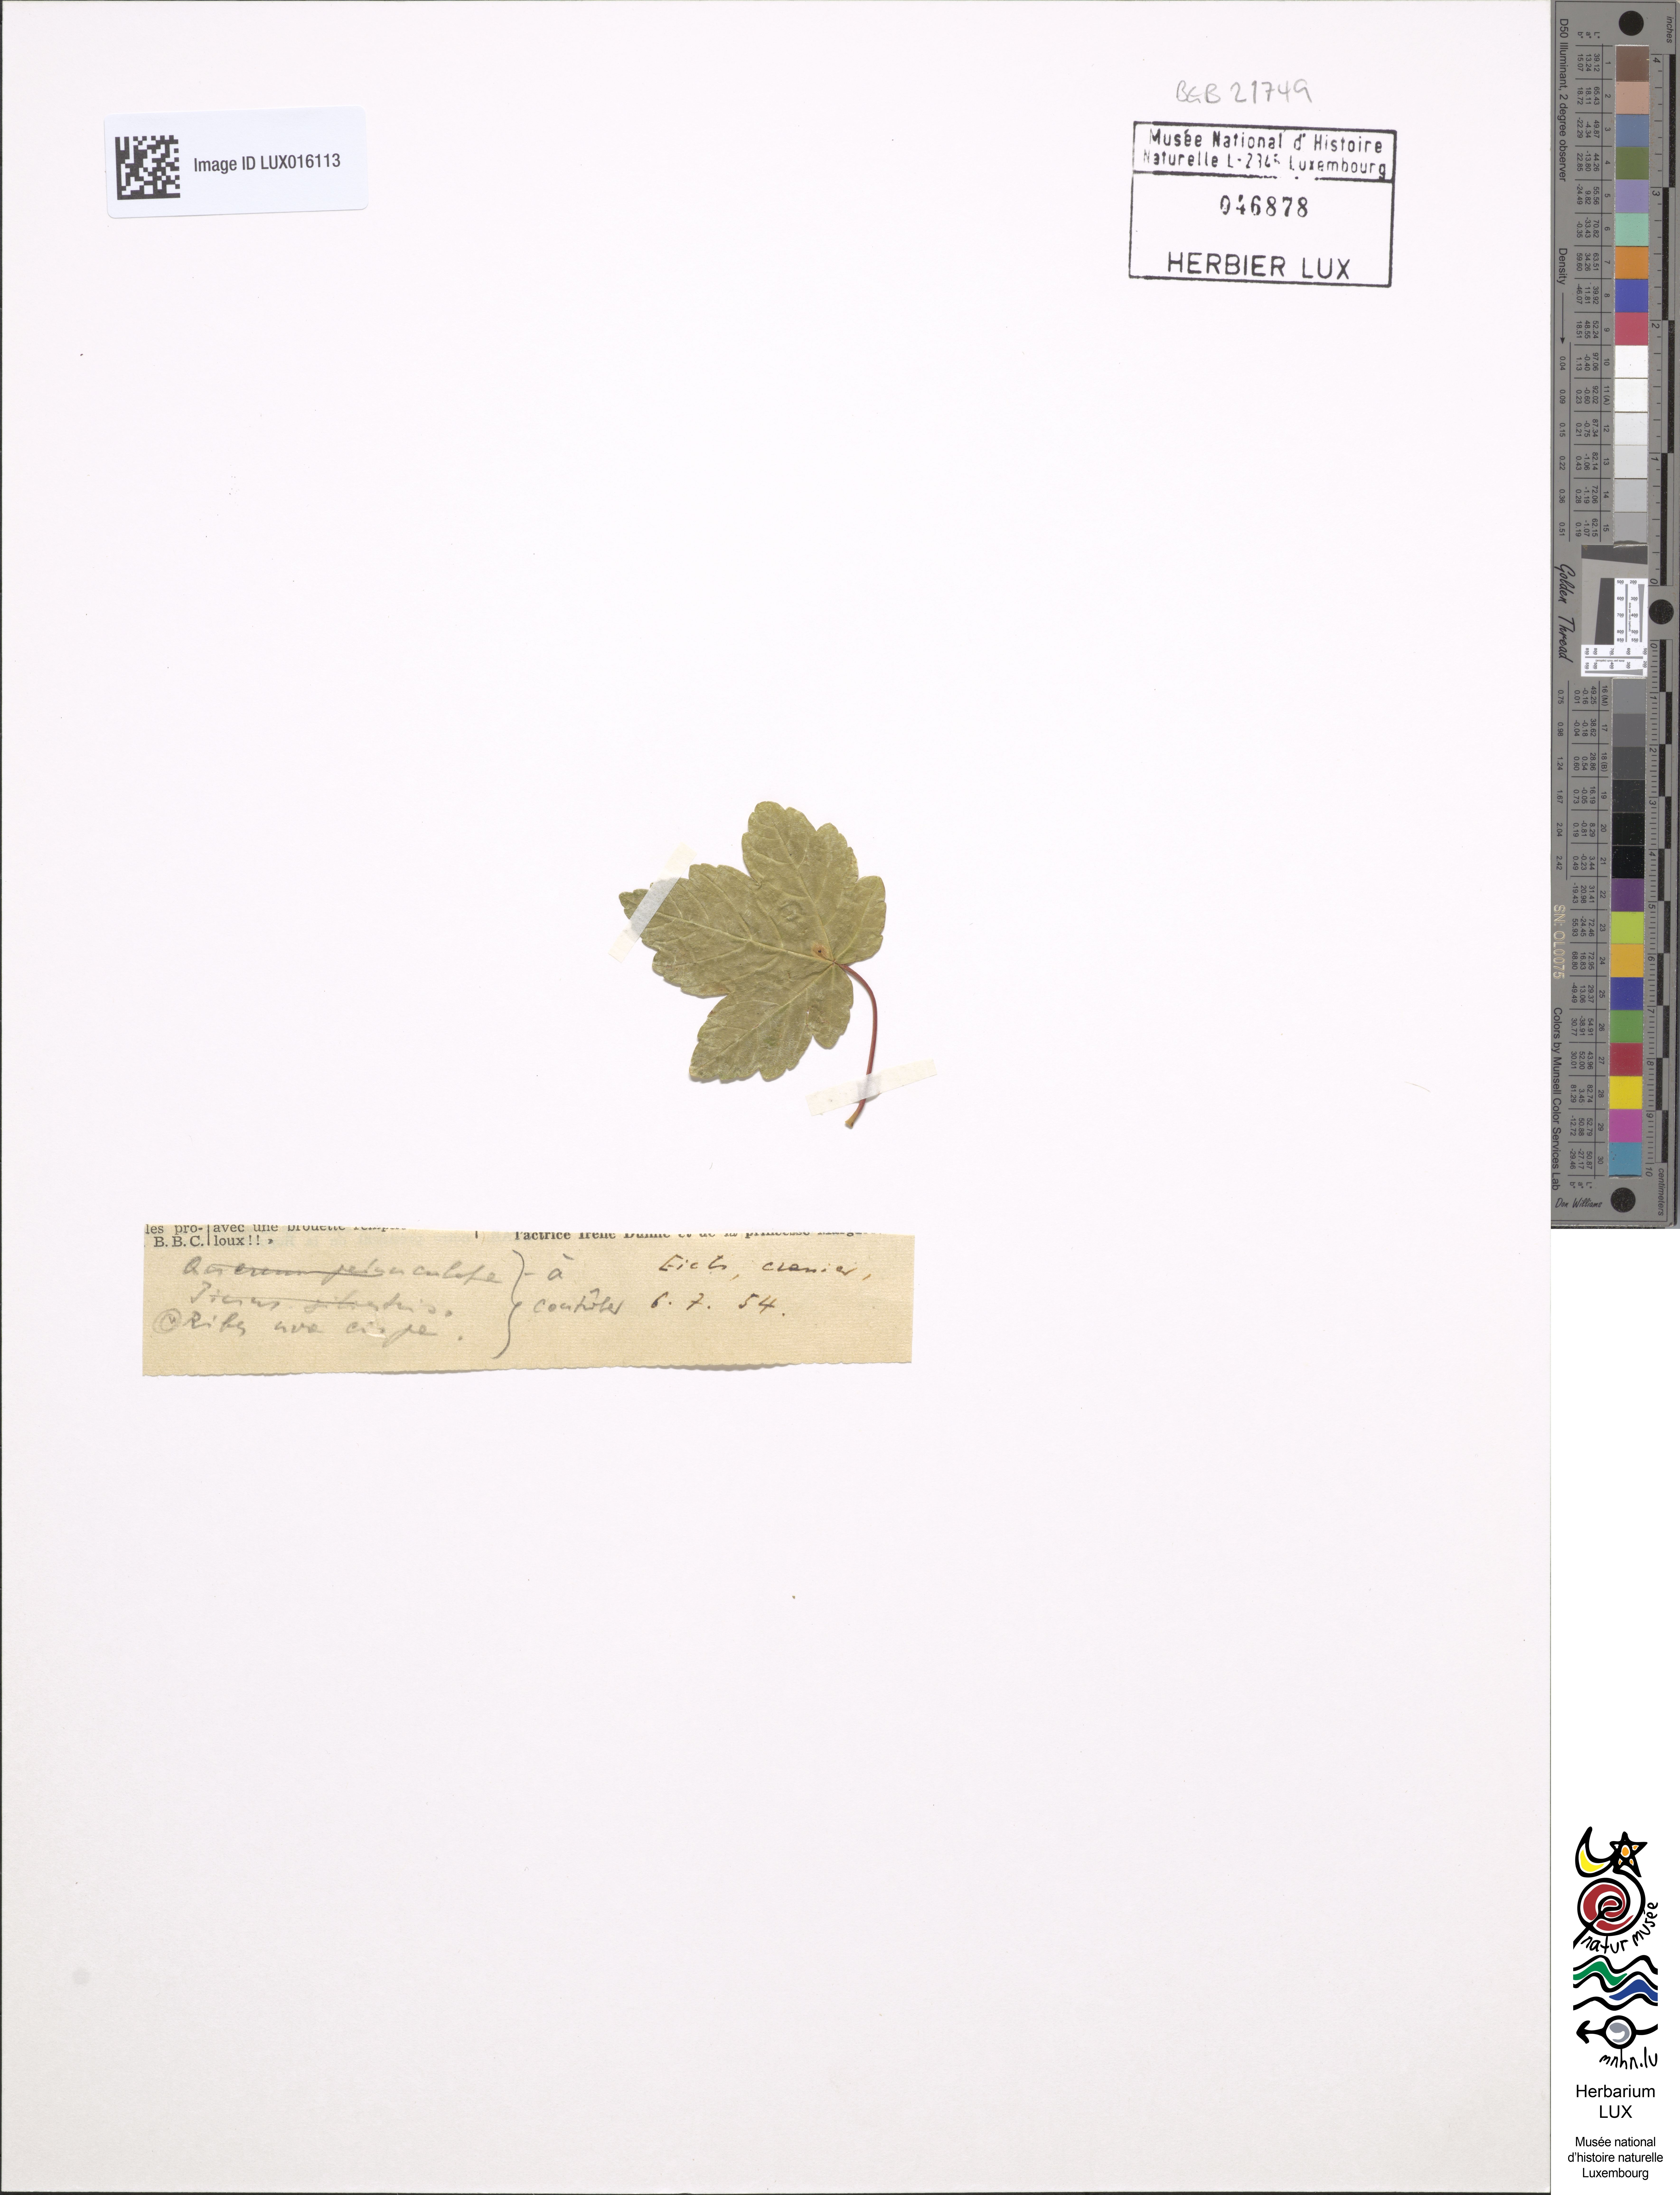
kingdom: Plantae
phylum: Tracheophyta
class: Magnoliopsida
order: Saxifragales
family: Grossulariaceae
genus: Ribes
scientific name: Ribes uva-crispa
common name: Gooseberry
